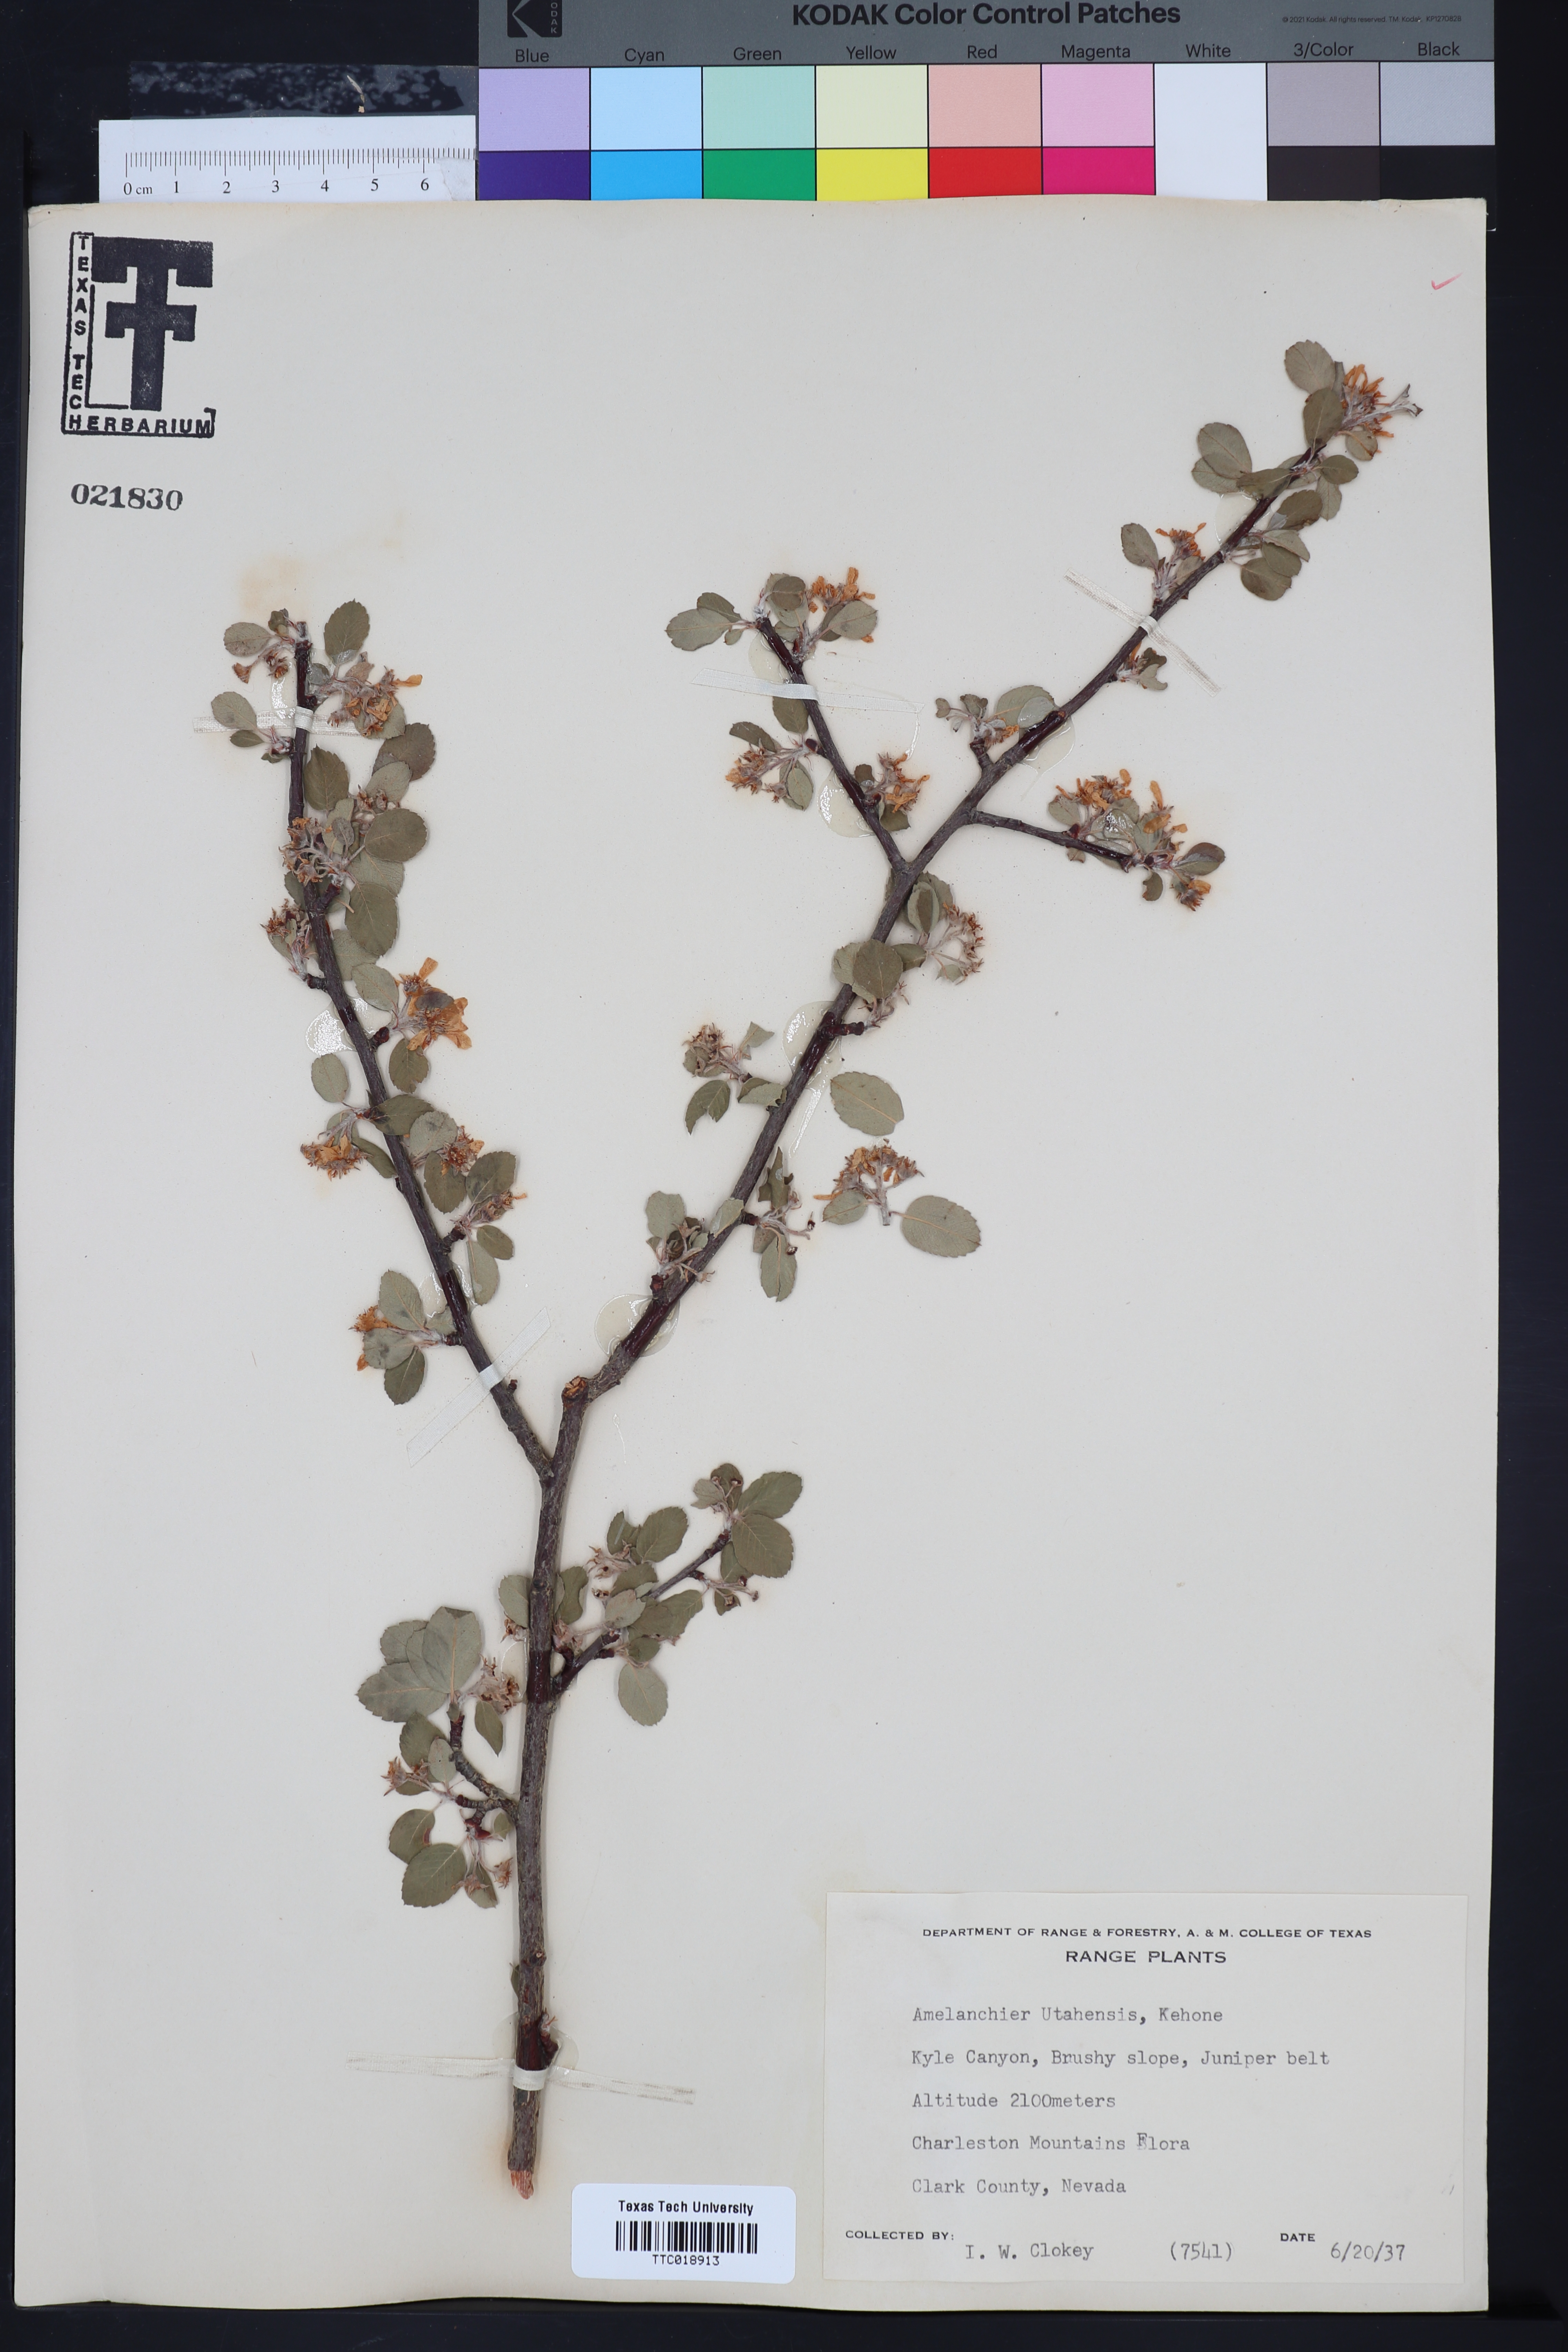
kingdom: Plantae
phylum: Tracheophyta
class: Magnoliopsida
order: Rosales
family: Rosaceae
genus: Amelanchier
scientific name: Amelanchier utahensis
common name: Utah serviceberry
